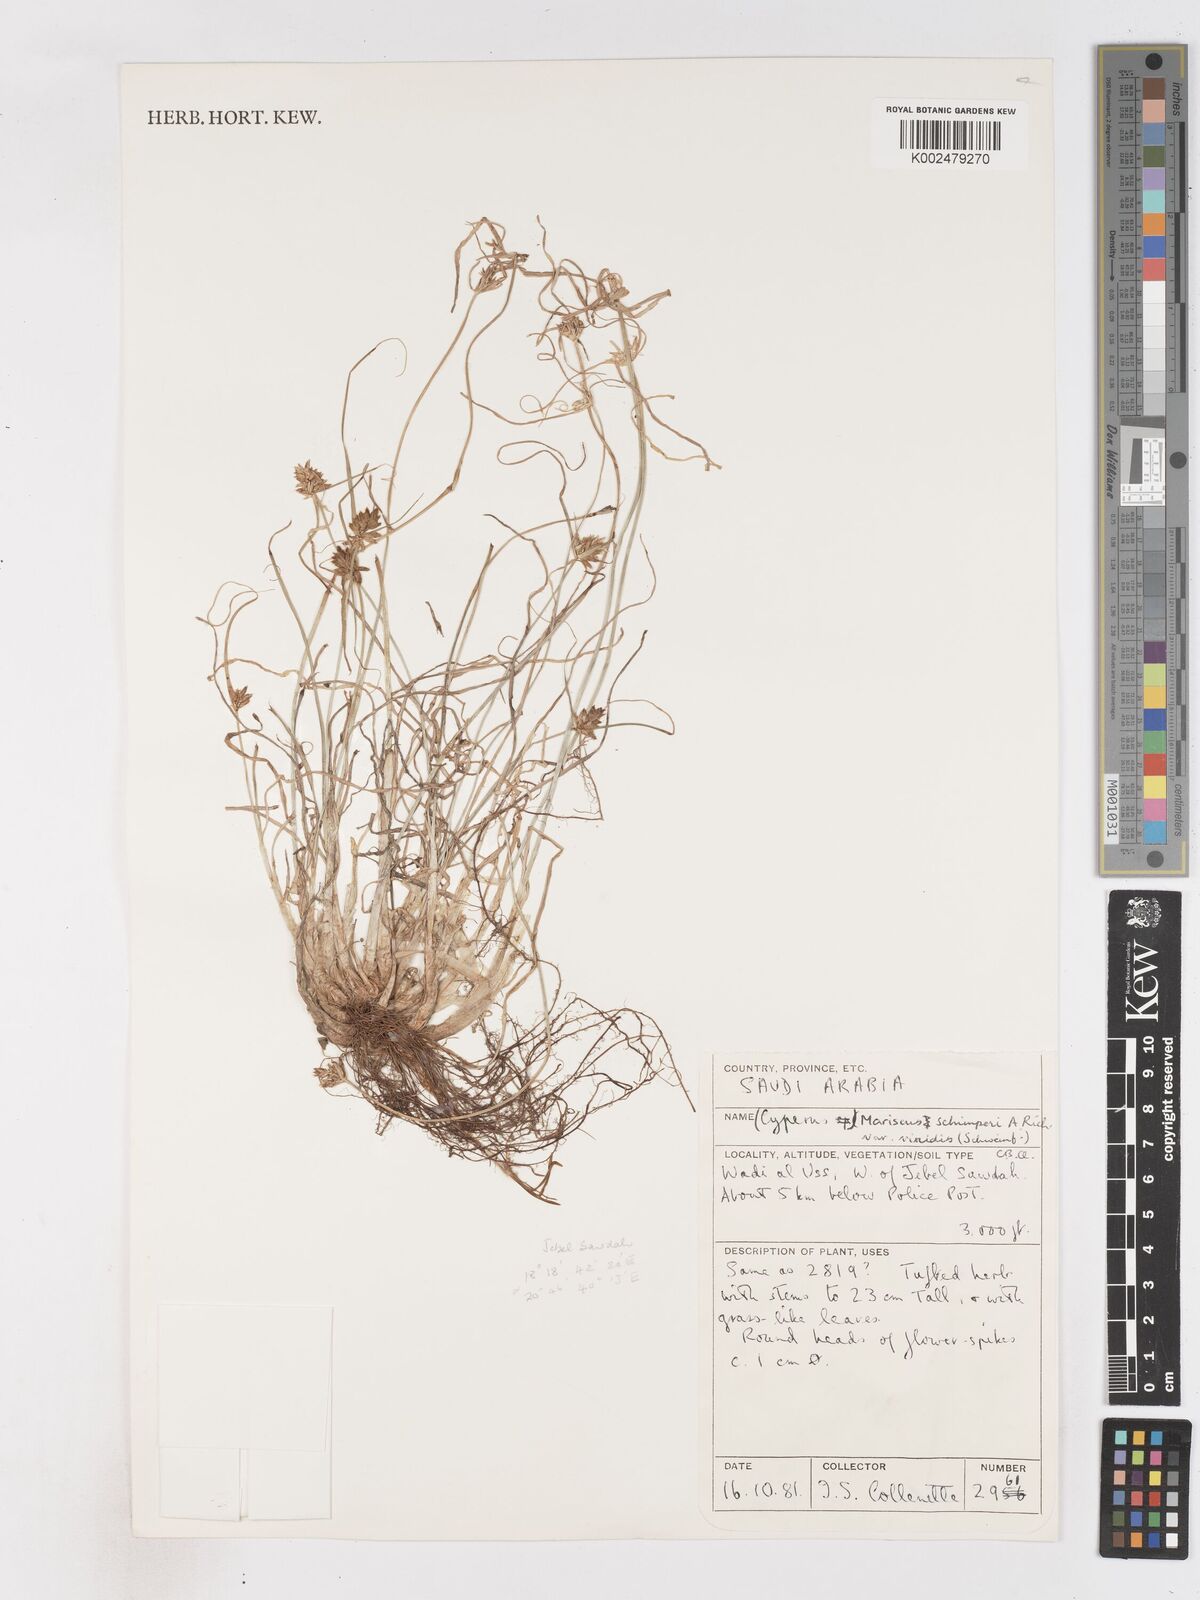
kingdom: Plantae
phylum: Tracheophyta
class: Liliopsida
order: Poales
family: Cyperaceae
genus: Cyperus
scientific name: Cyperus cruentus
